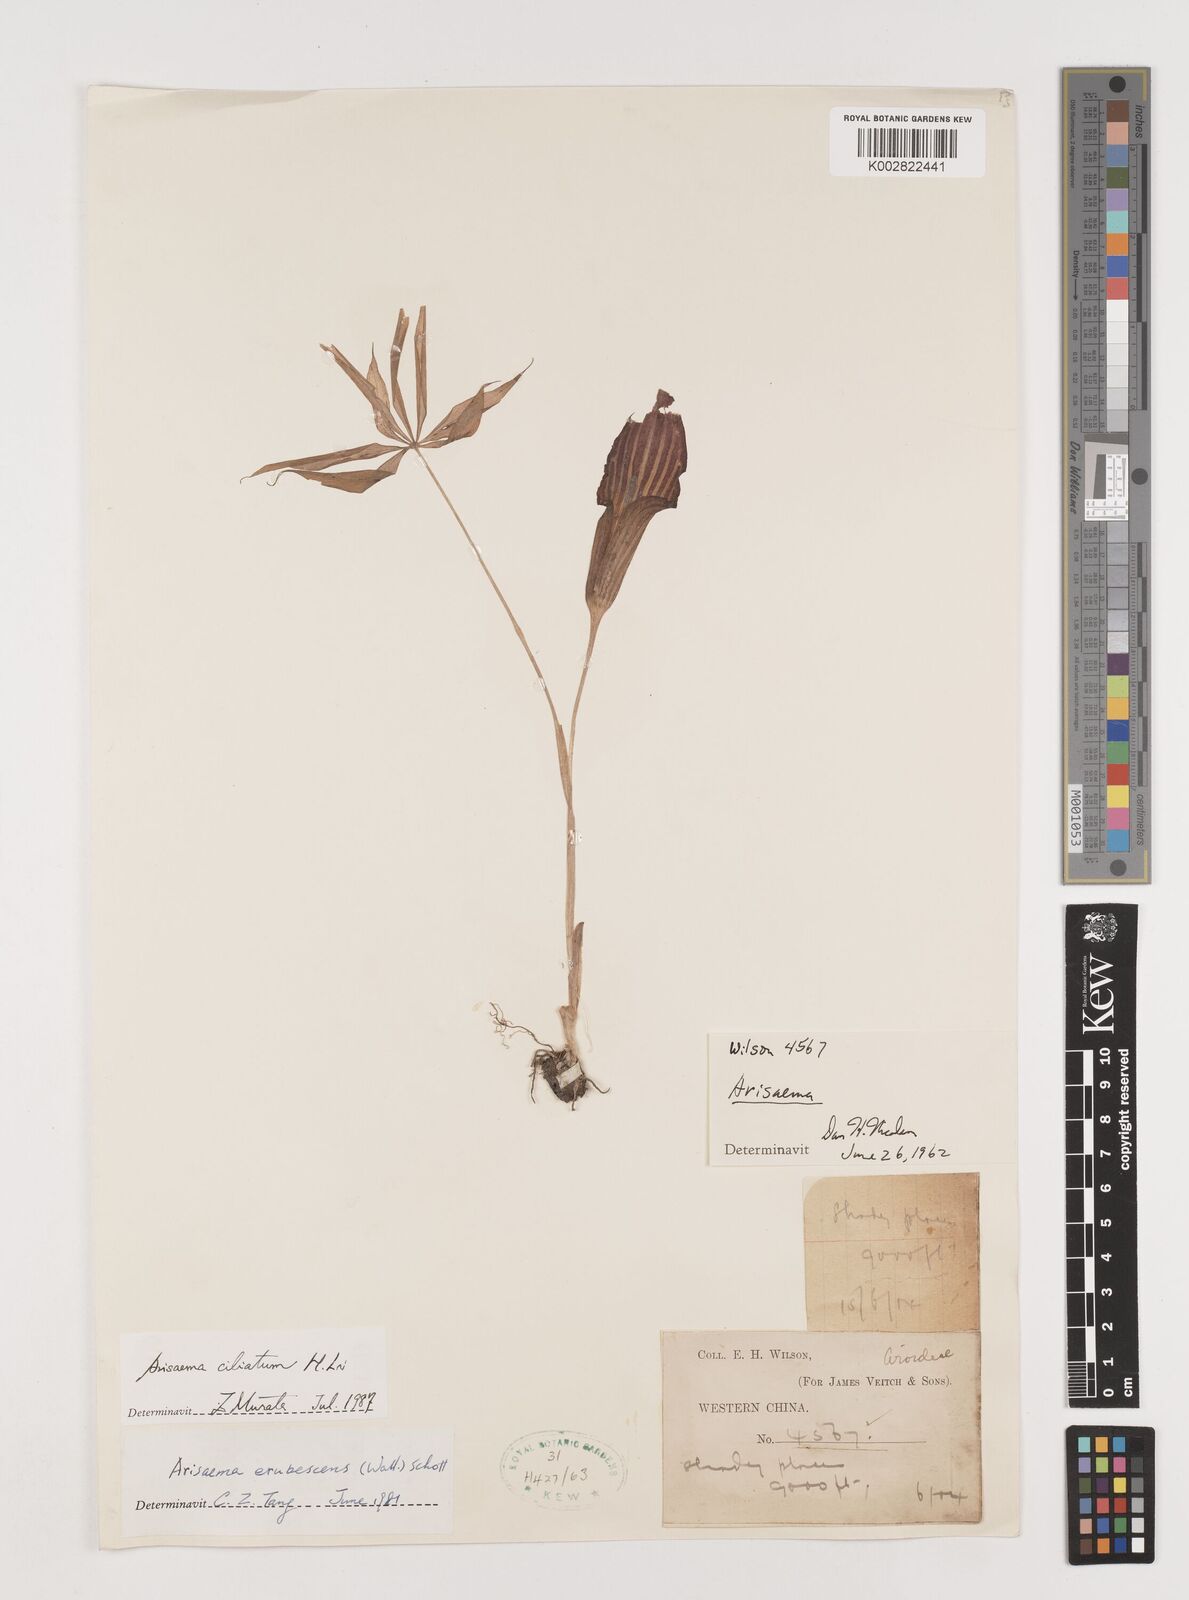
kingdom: Plantae
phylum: Tracheophyta
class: Liliopsida
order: Alismatales
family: Araceae
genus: Arisaema
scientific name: Arisaema erubescens
